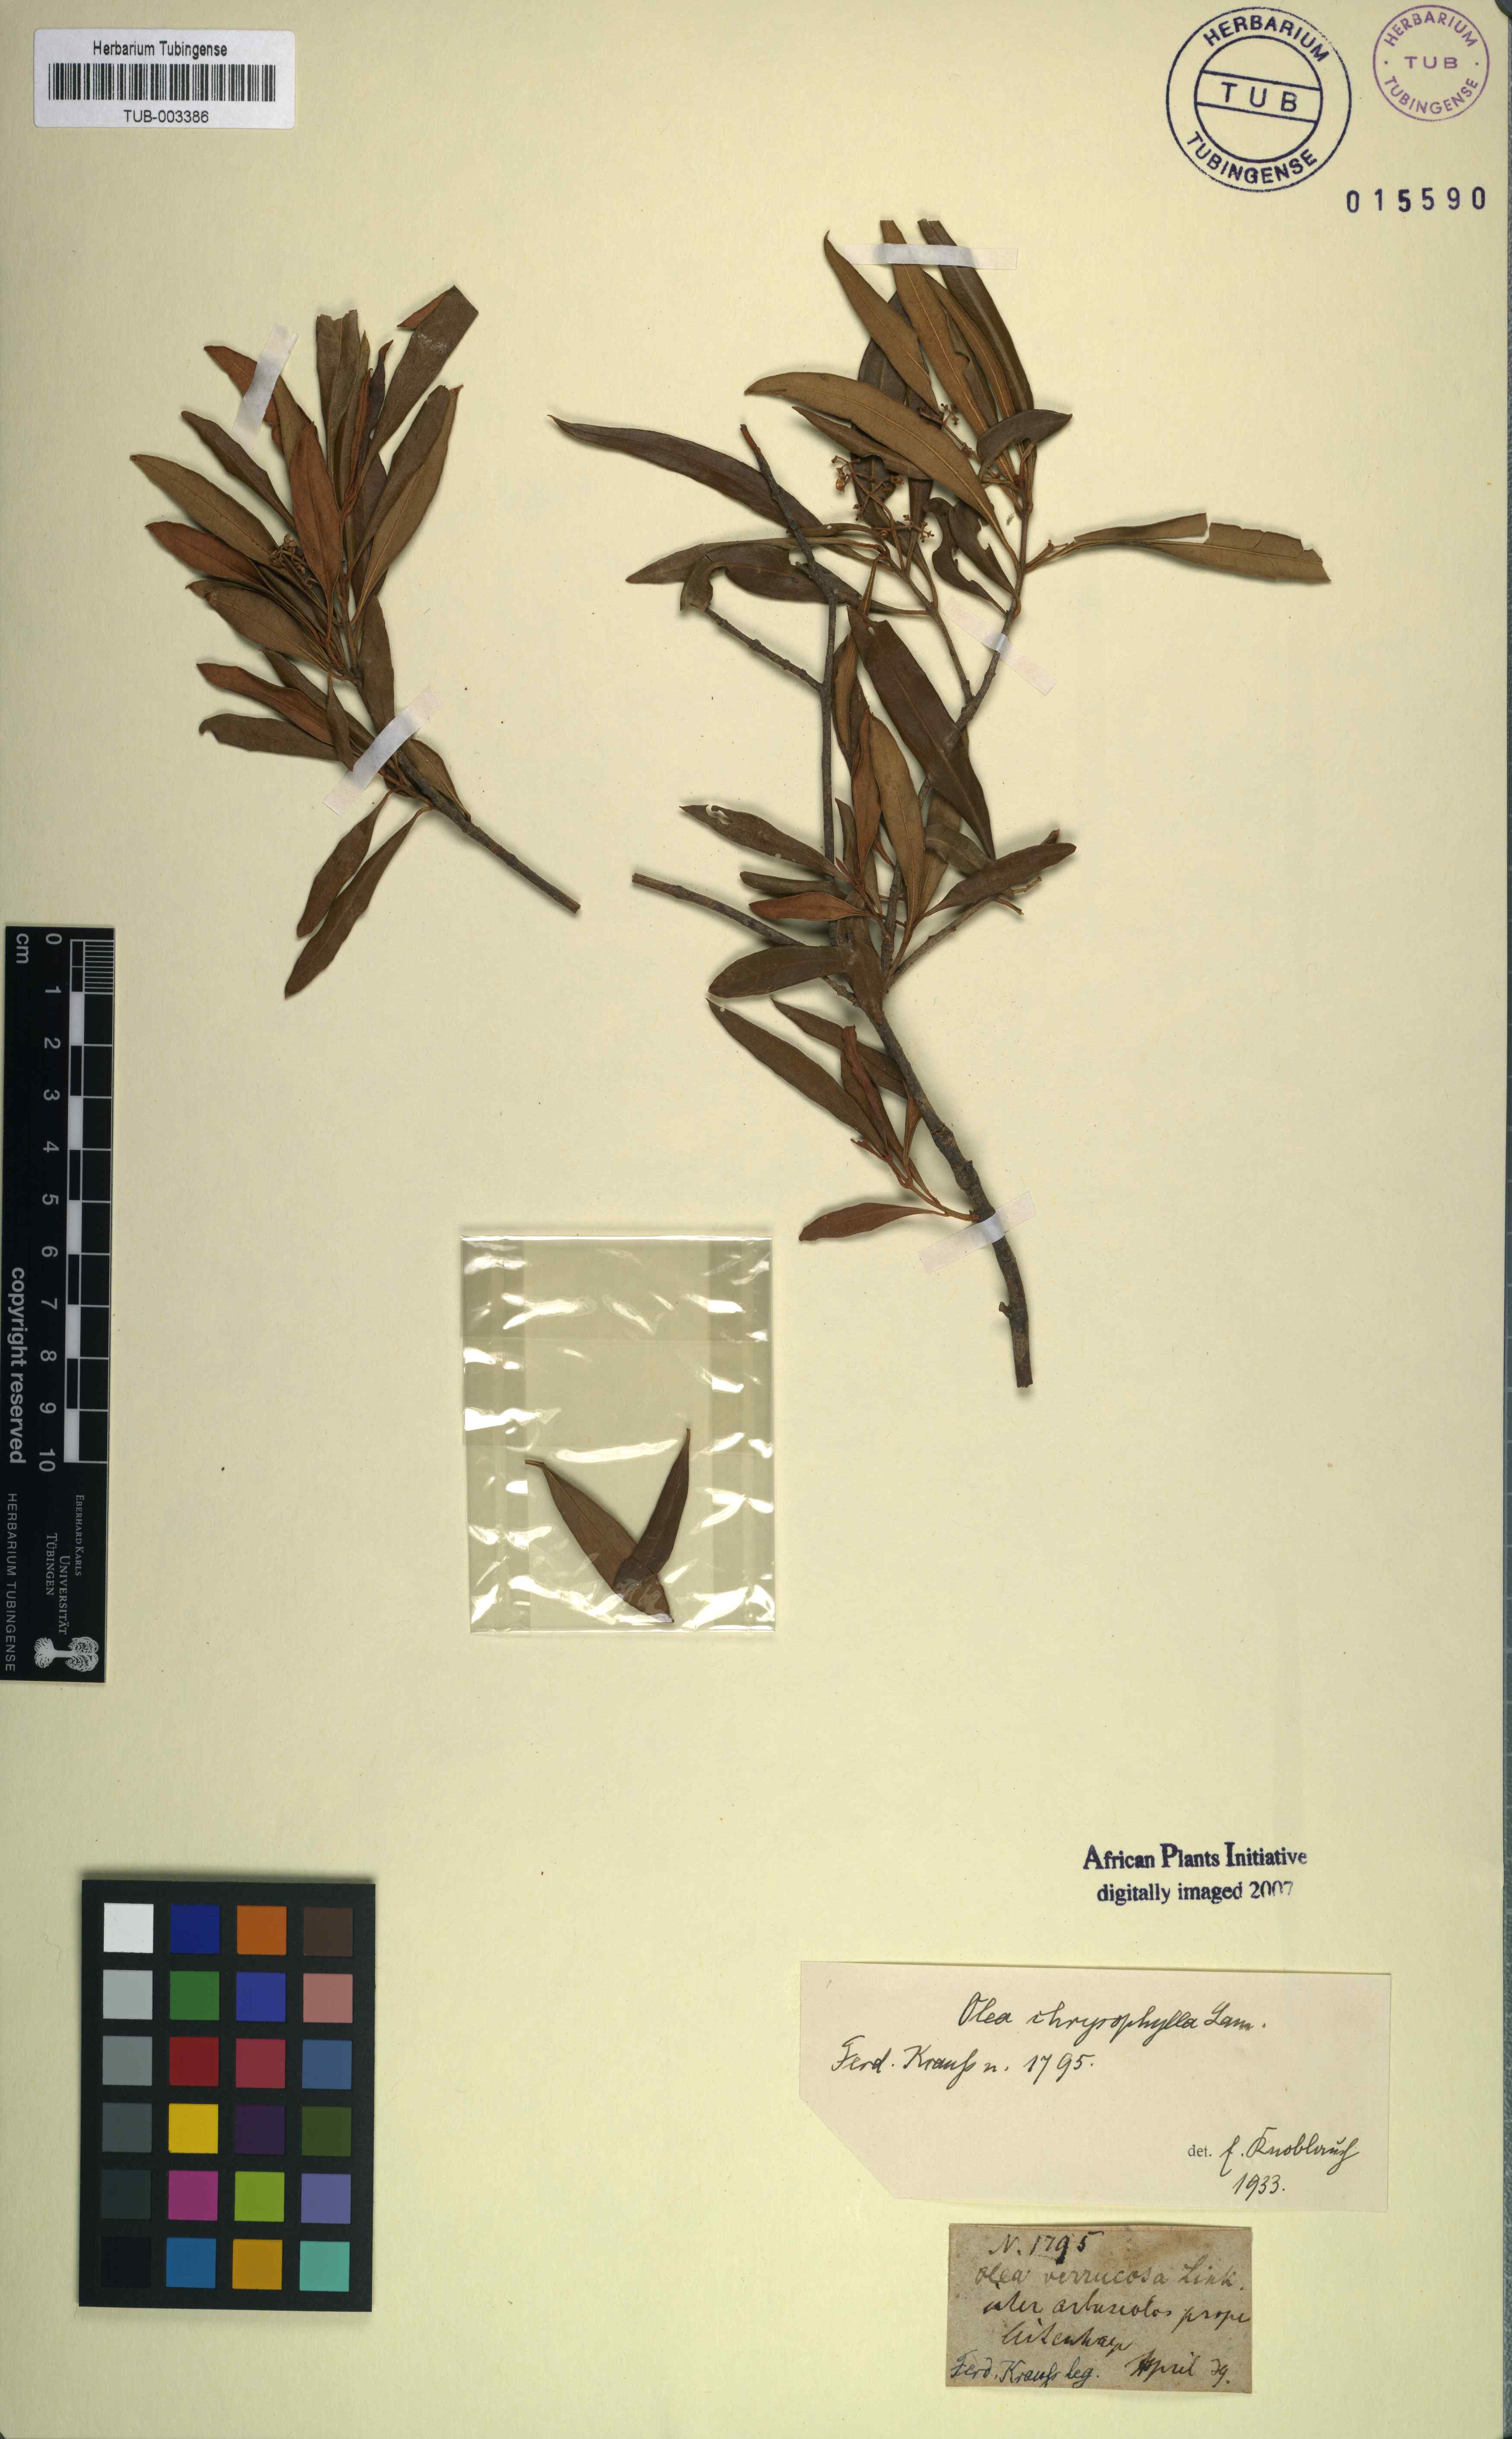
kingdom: Plantae
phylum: Tracheophyta
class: Magnoliopsida
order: Lamiales
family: Oleaceae
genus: Olea
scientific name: Olea europaea
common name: Olive
